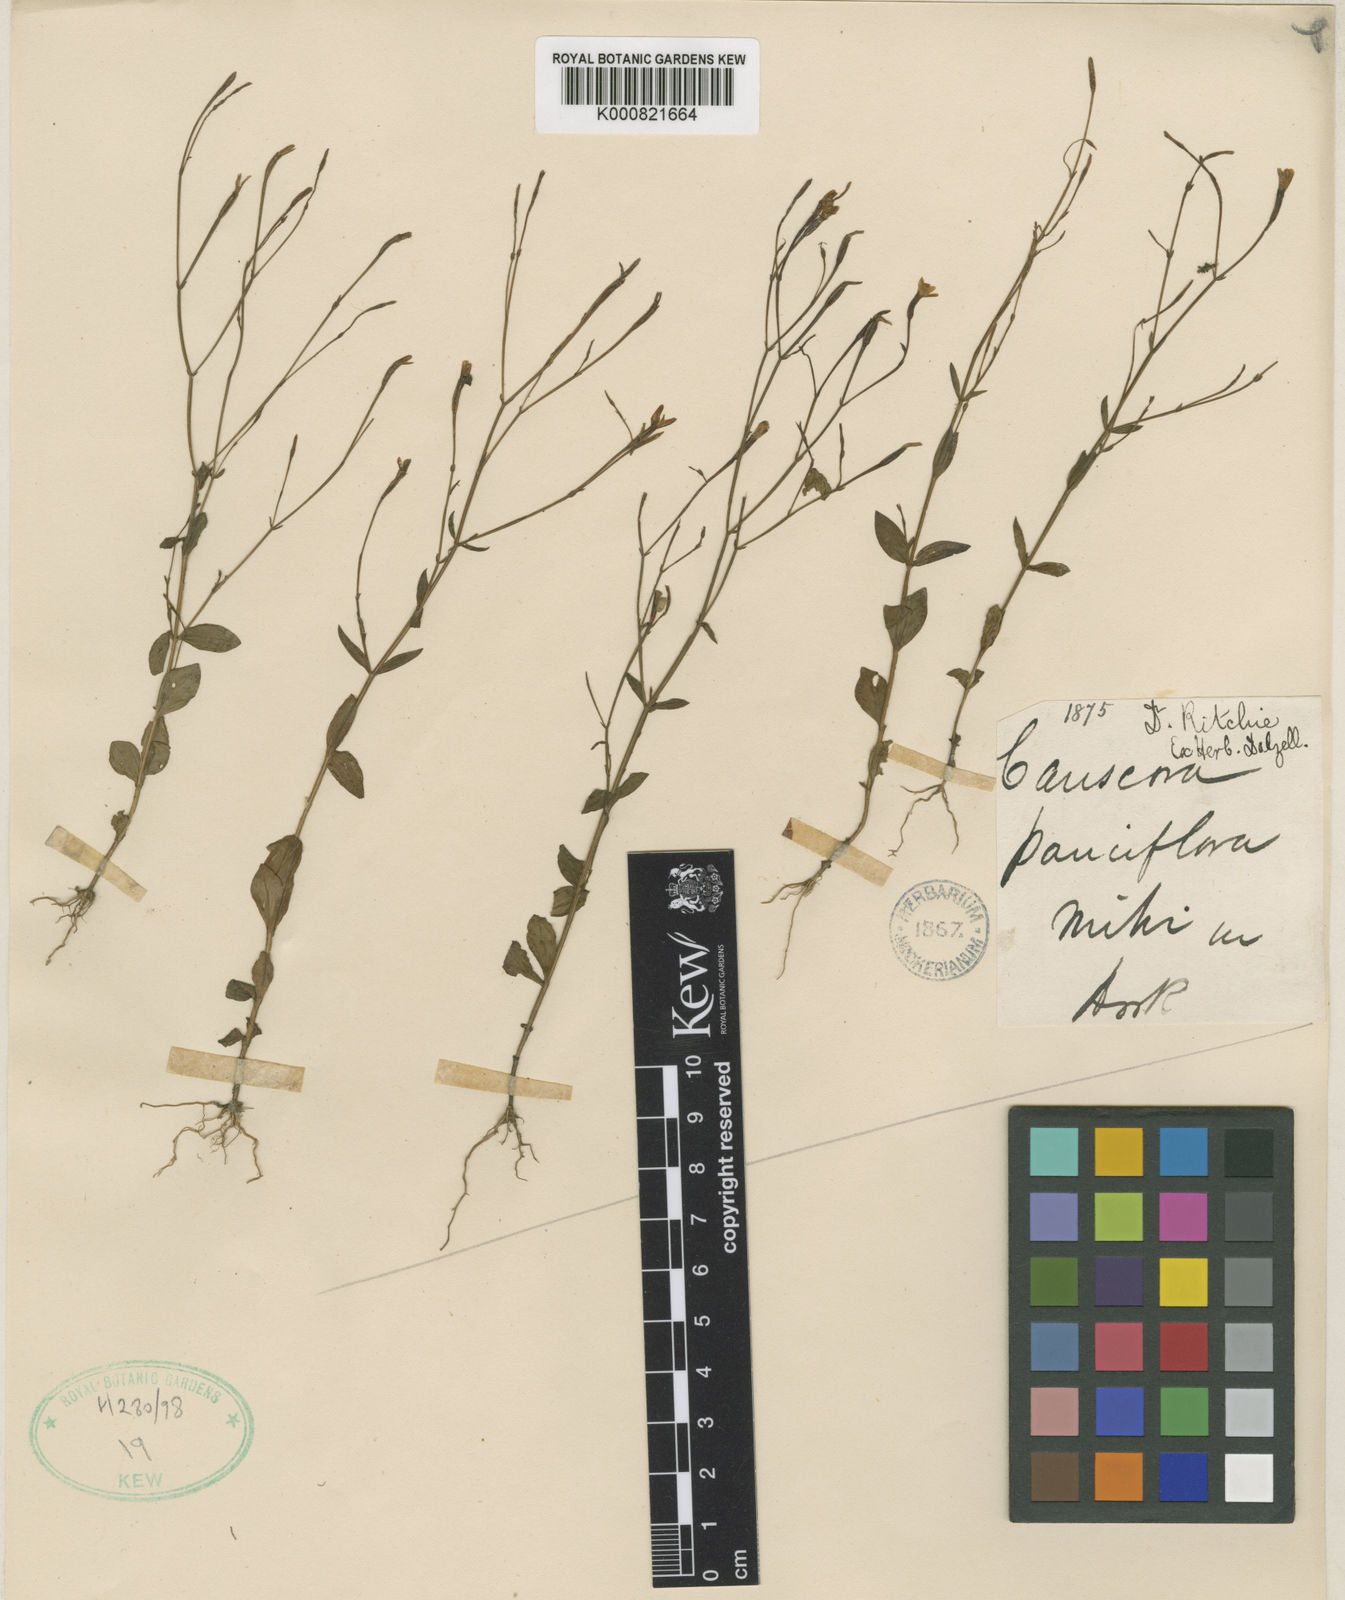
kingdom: Plantae
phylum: Tracheophyta
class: Magnoliopsida
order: Gentianales
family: Gentianaceae
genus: Canscora
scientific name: Canscora diffusa
